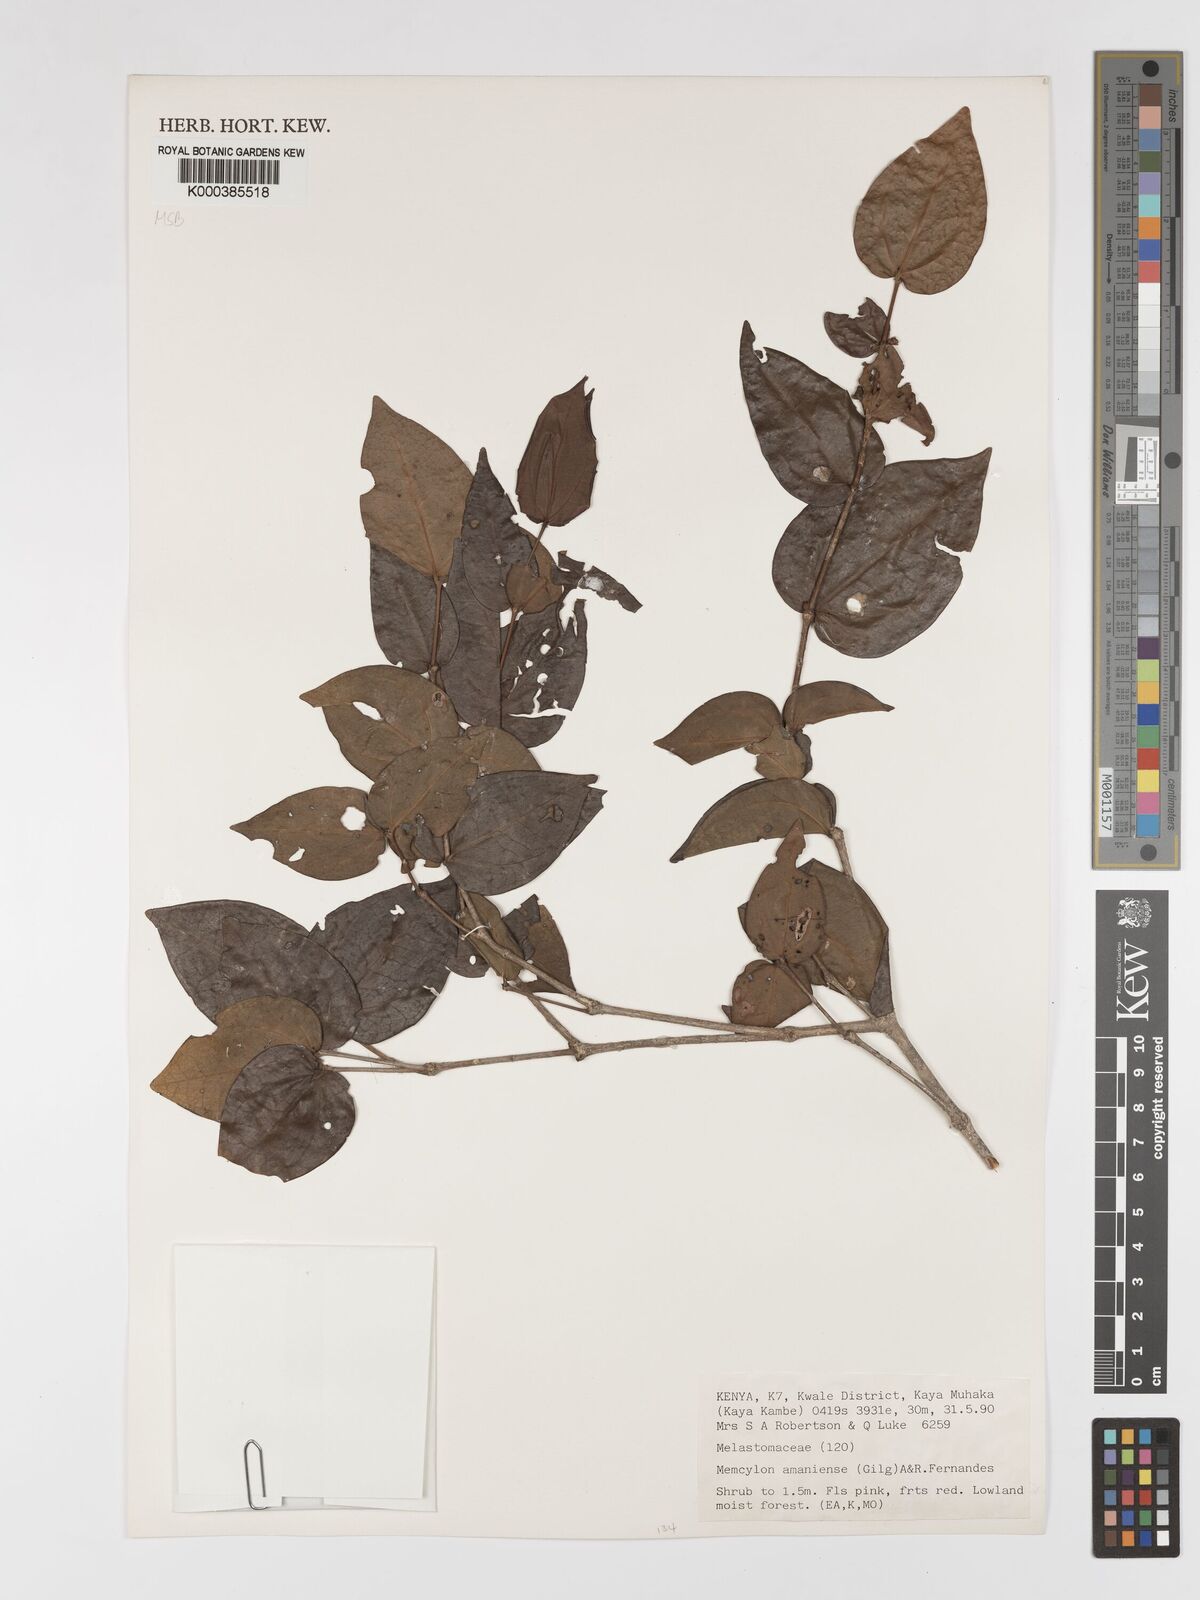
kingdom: Plantae
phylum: Tracheophyta
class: Magnoliopsida
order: Myrtales
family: Melastomataceae
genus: Warneckea
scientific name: Warneckea amaniensis
